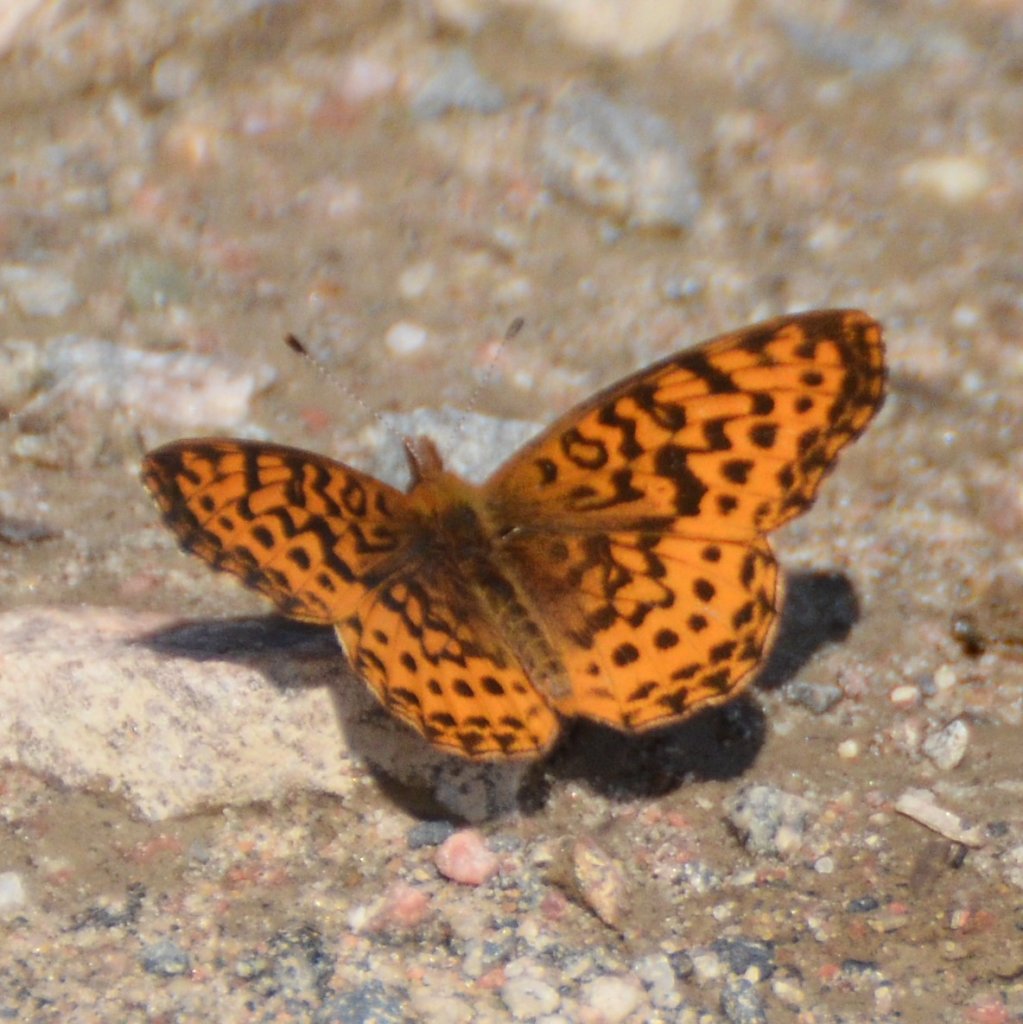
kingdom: Animalia
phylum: Arthropoda
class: Insecta
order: Lepidoptera
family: Nymphalidae
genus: Clossiana
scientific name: Clossiana toddi
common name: Meadow Fritillary
